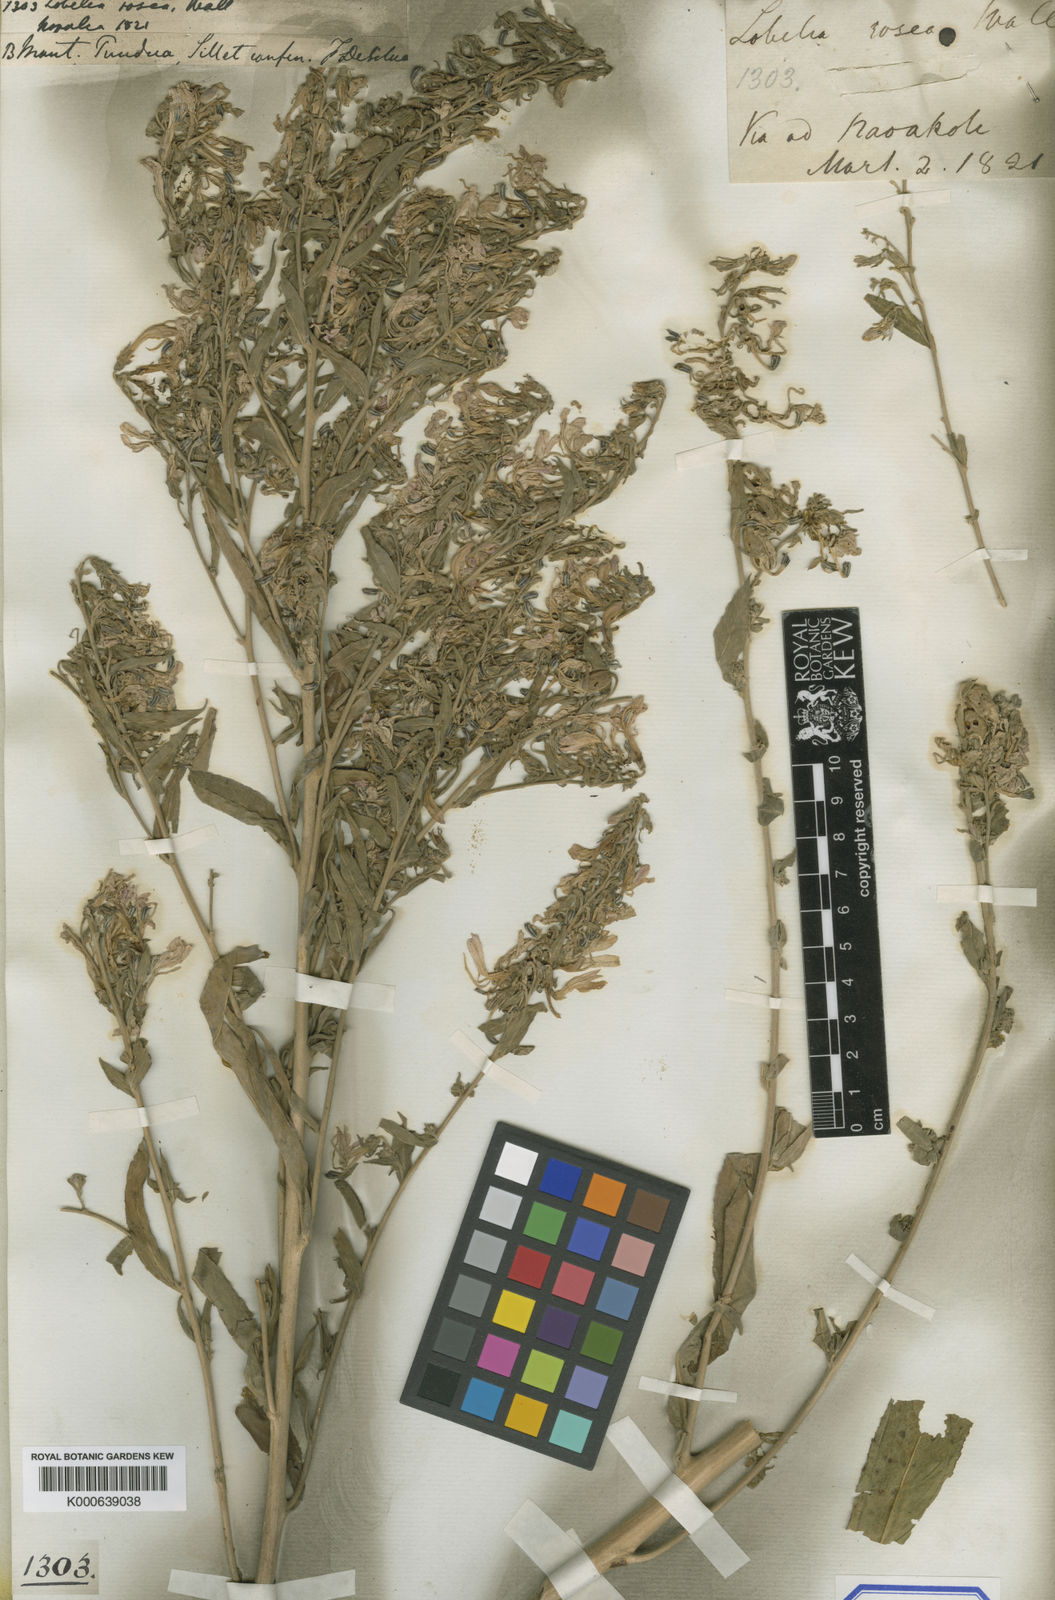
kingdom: Plantae
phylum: Tracheophyta
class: Magnoliopsida
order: Asterales
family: Campanulaceae
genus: Lobelia
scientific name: Lobelia rosea
